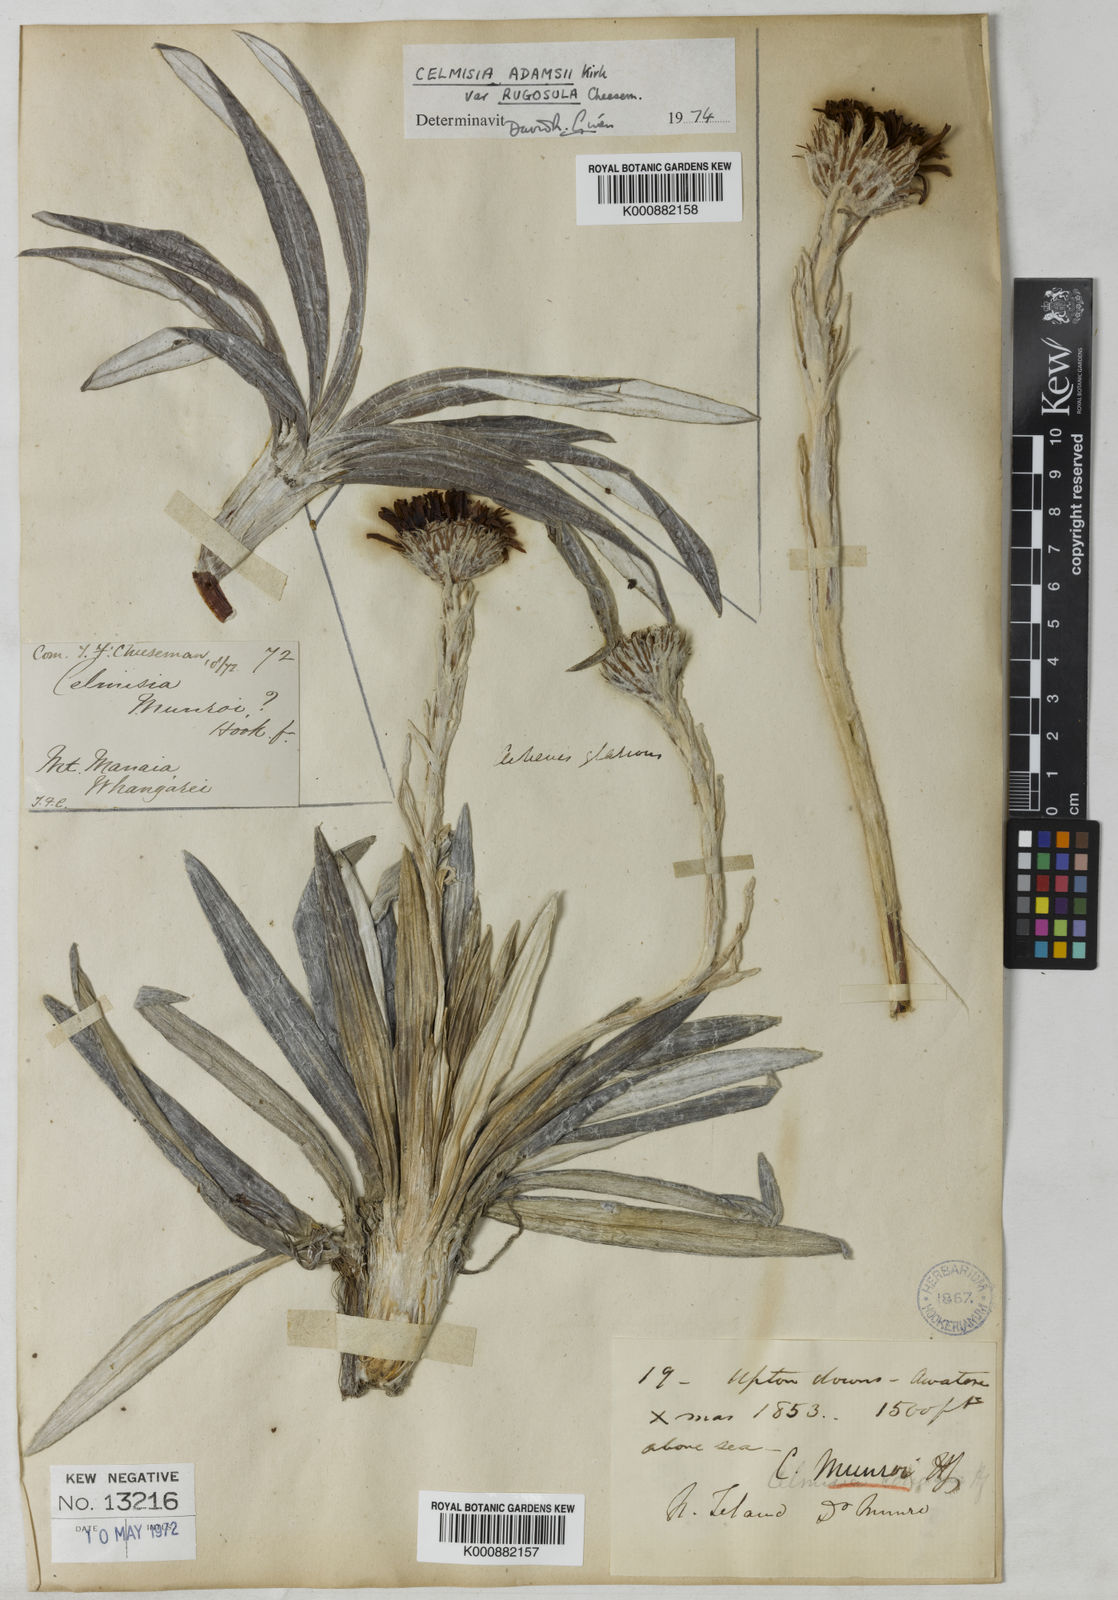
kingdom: Plantae
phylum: Tracheophyta
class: Magnoliopsida
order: Asterales
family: Asteraceae
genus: Celmisia
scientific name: Celmisia munroi
